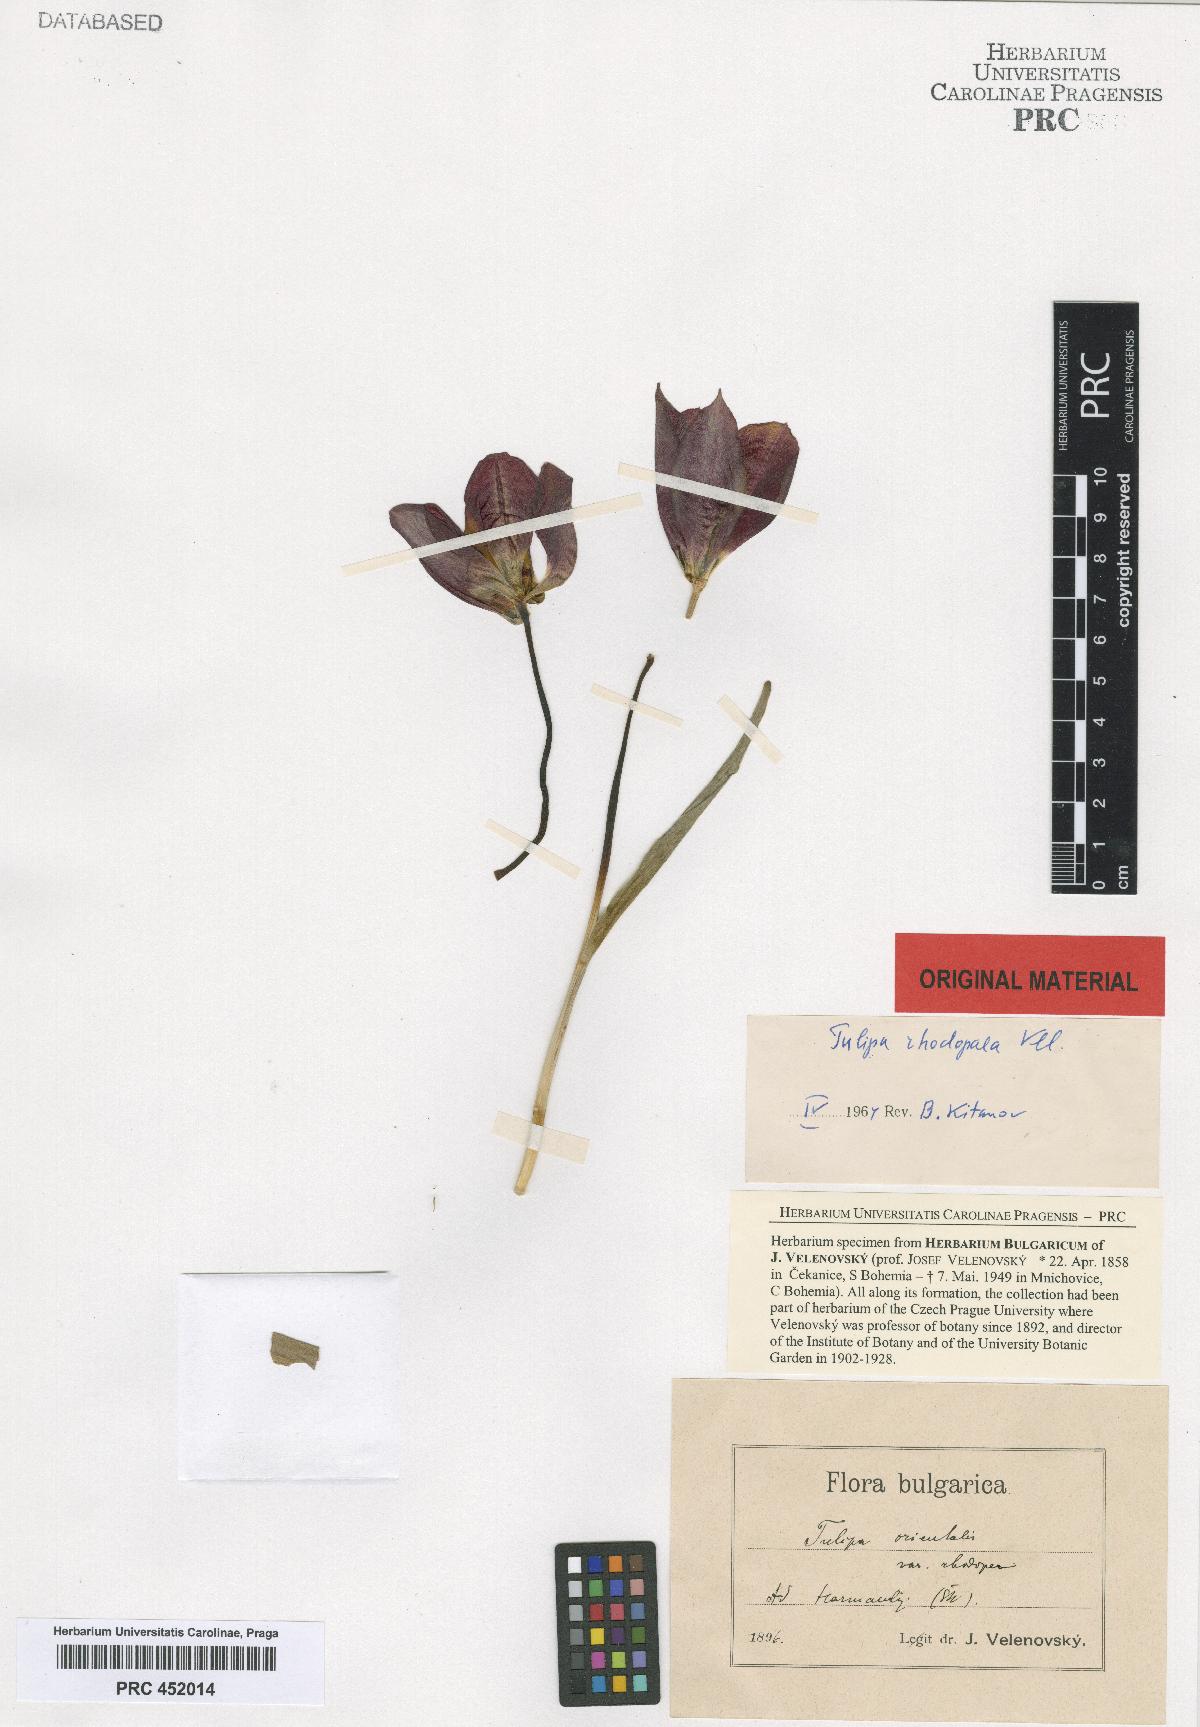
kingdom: Plantae
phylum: Tracheophyta
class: Liliopsida
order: Liliales
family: Liliaceae
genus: Tulipa
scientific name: Tulipa hungarica
